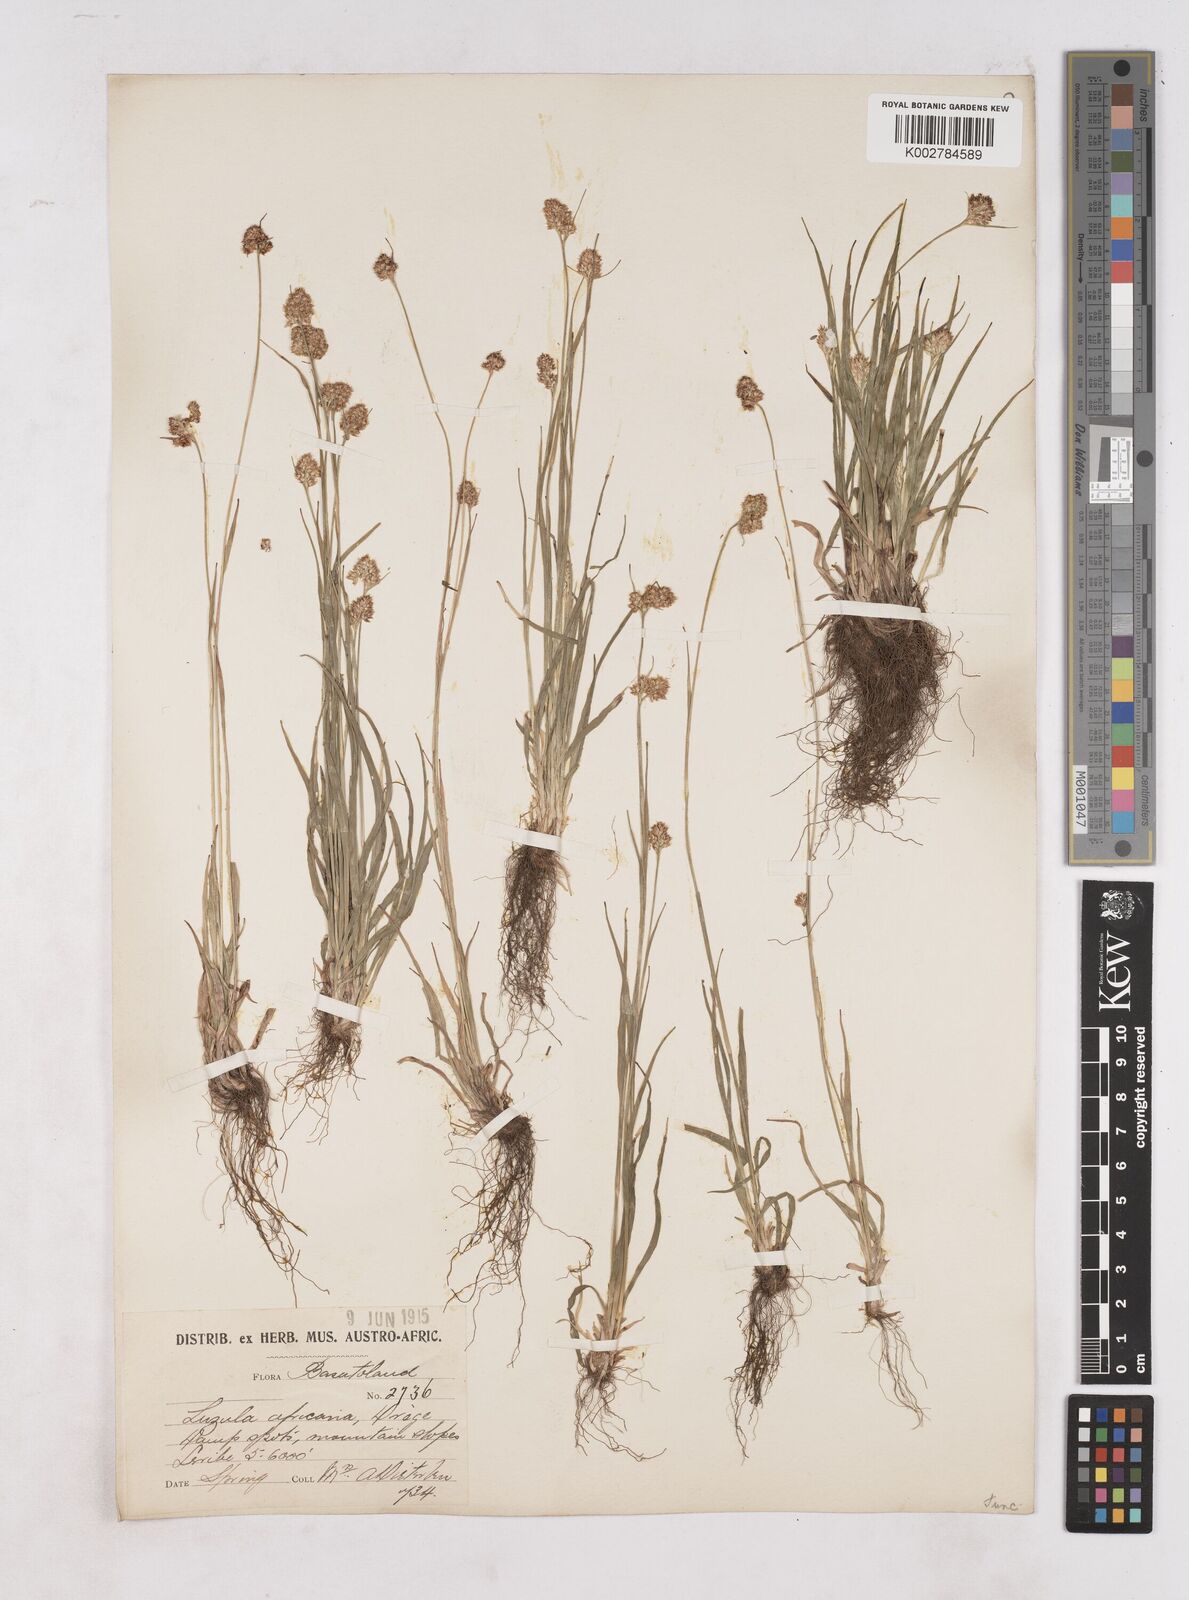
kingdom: Plantae
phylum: Tracheophyta
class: Liliopsida
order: Poales
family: Juncaceae
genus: Luzula
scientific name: Luzula africana
